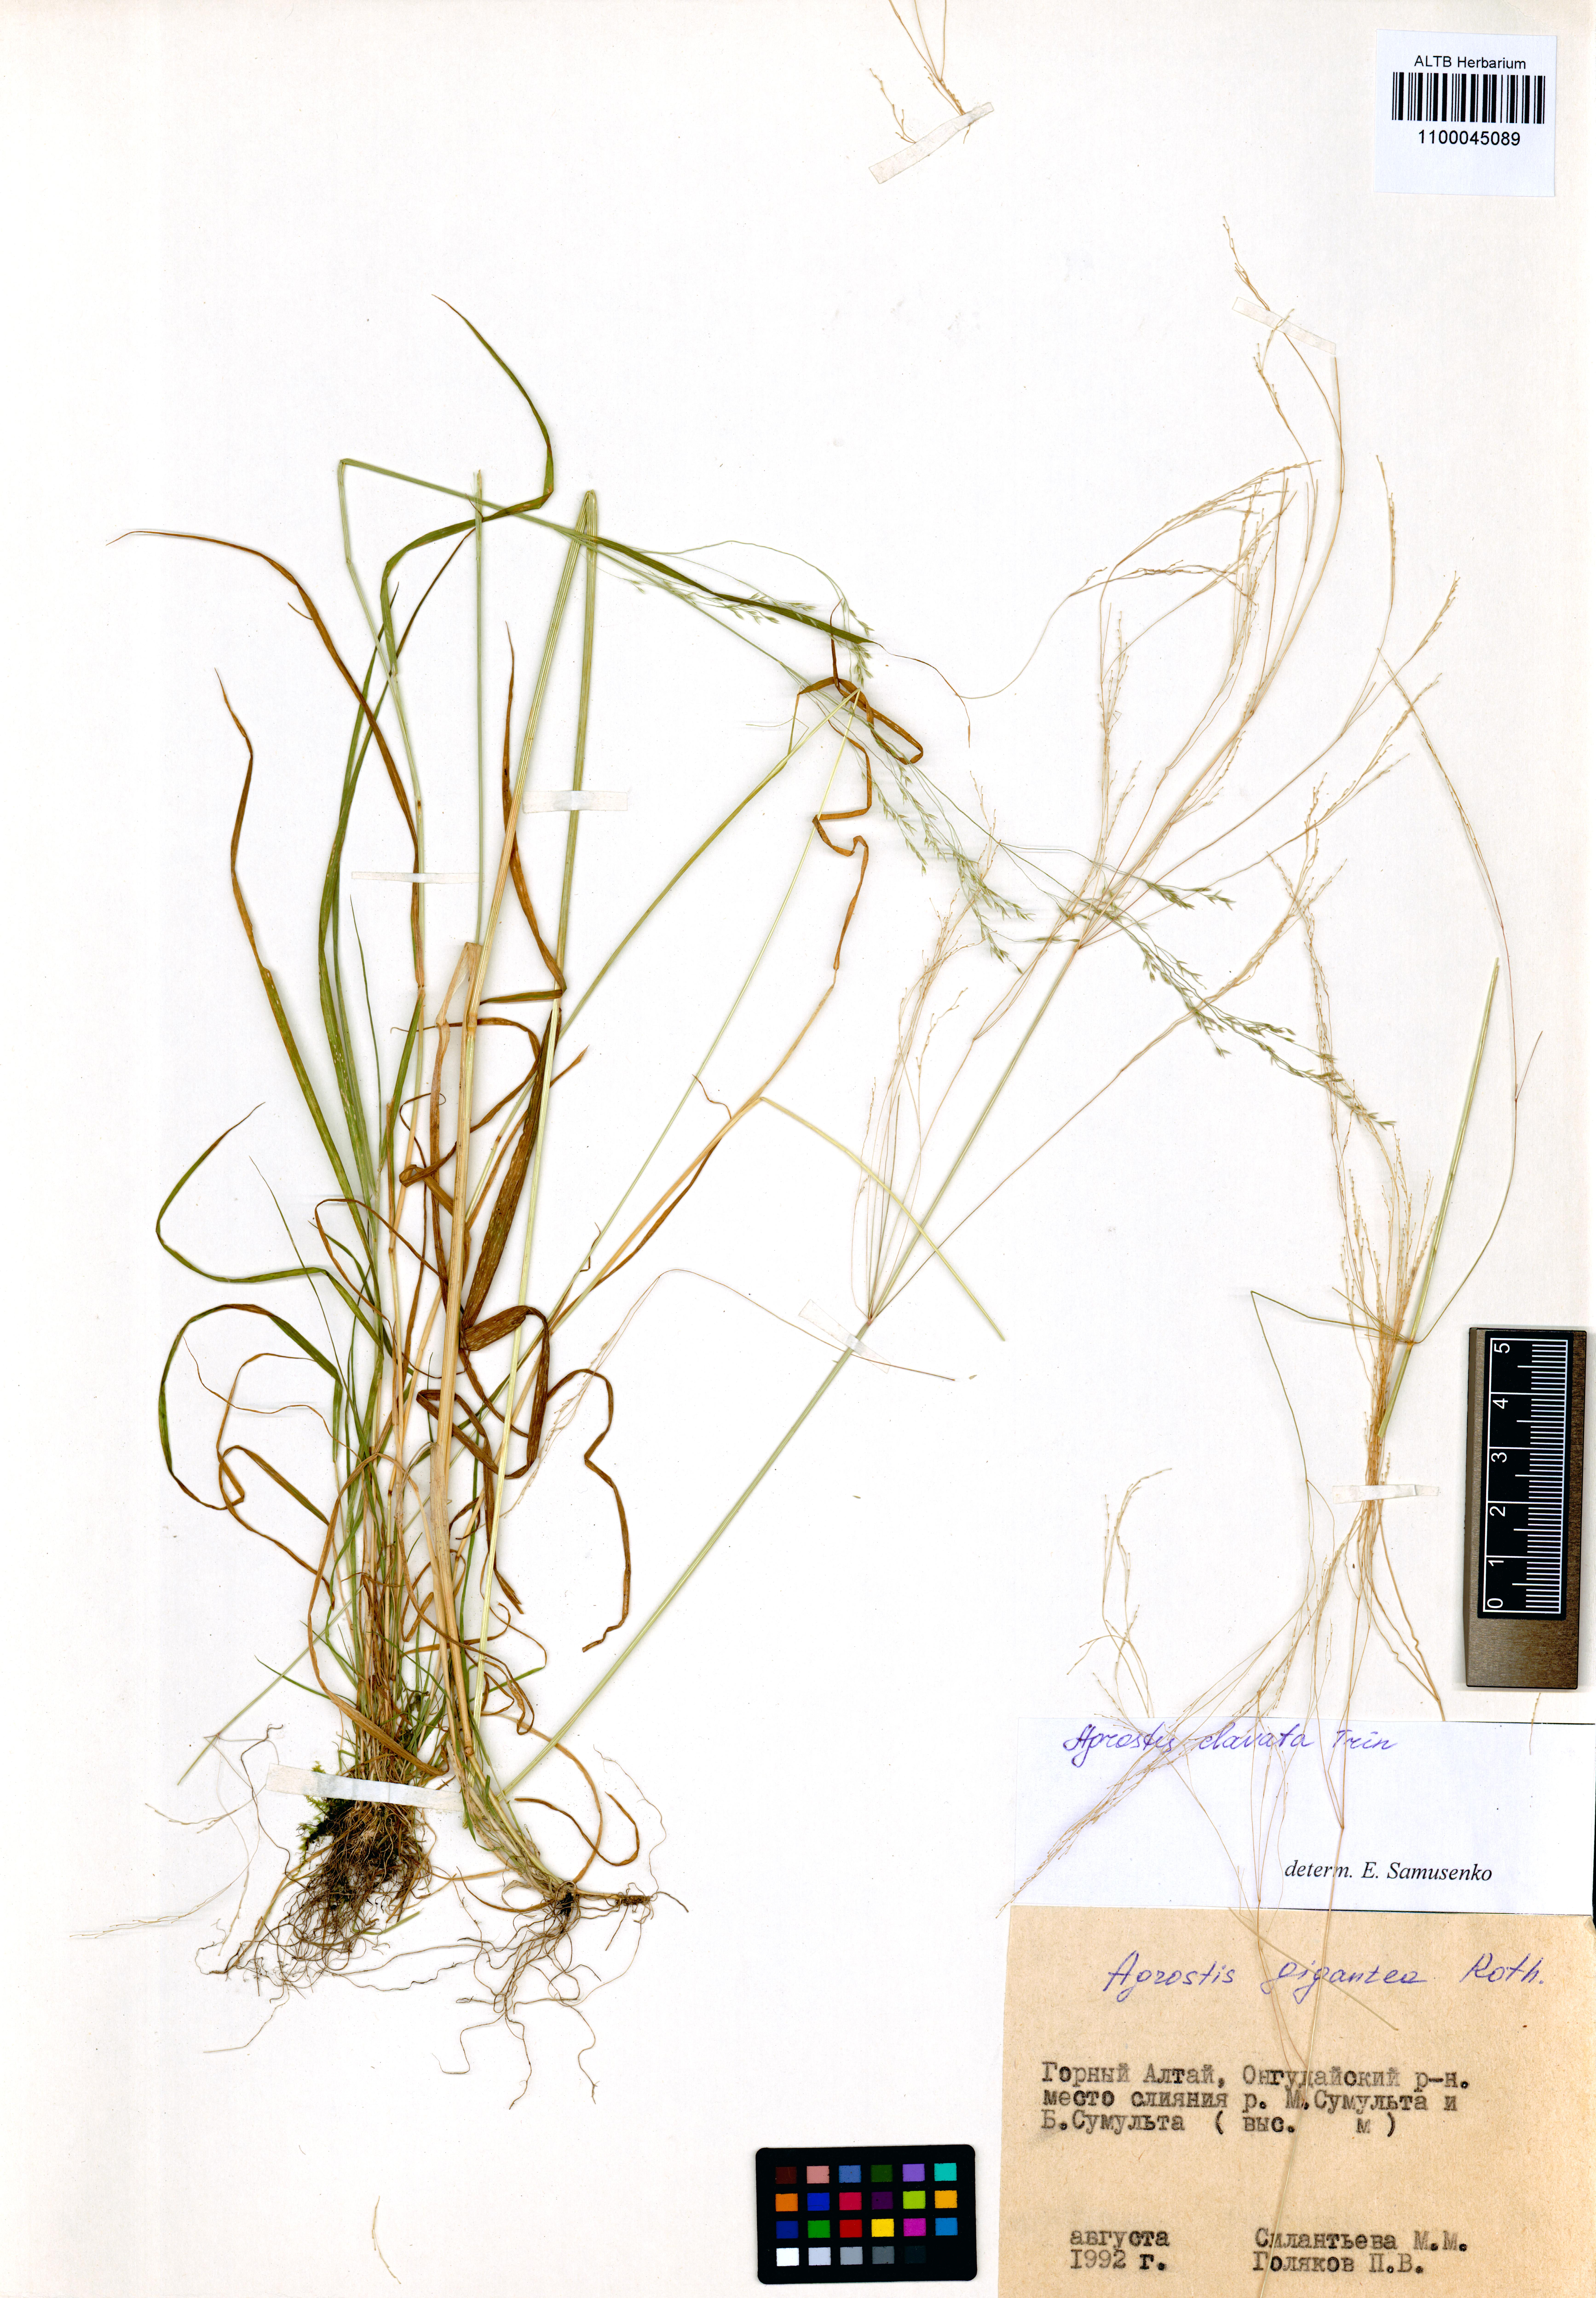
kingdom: Plantae
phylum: Tracheophyta
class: Liliopsida
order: Poales
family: Poaceae
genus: Agrostis
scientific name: Agrostis clavata
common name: Clavate bent
